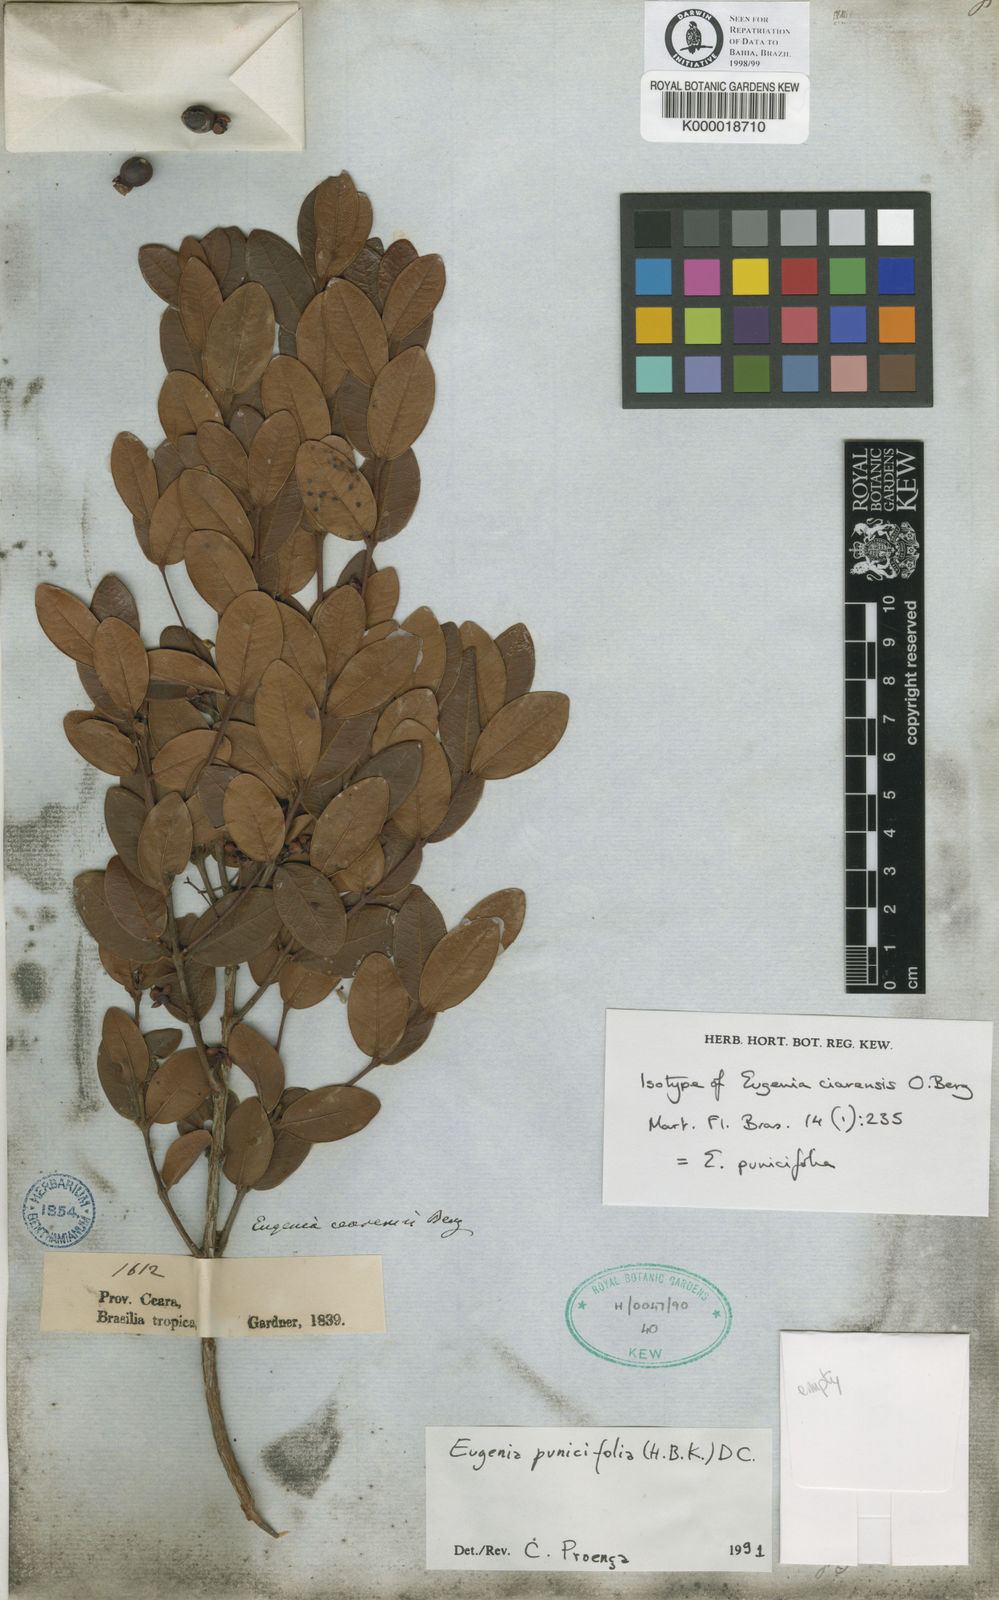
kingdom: Plantae
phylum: Tracheophyta
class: Magnoliopsida
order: Myrtales
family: Myrtaceae
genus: Eugenia
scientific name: Eugenia punicifolia
